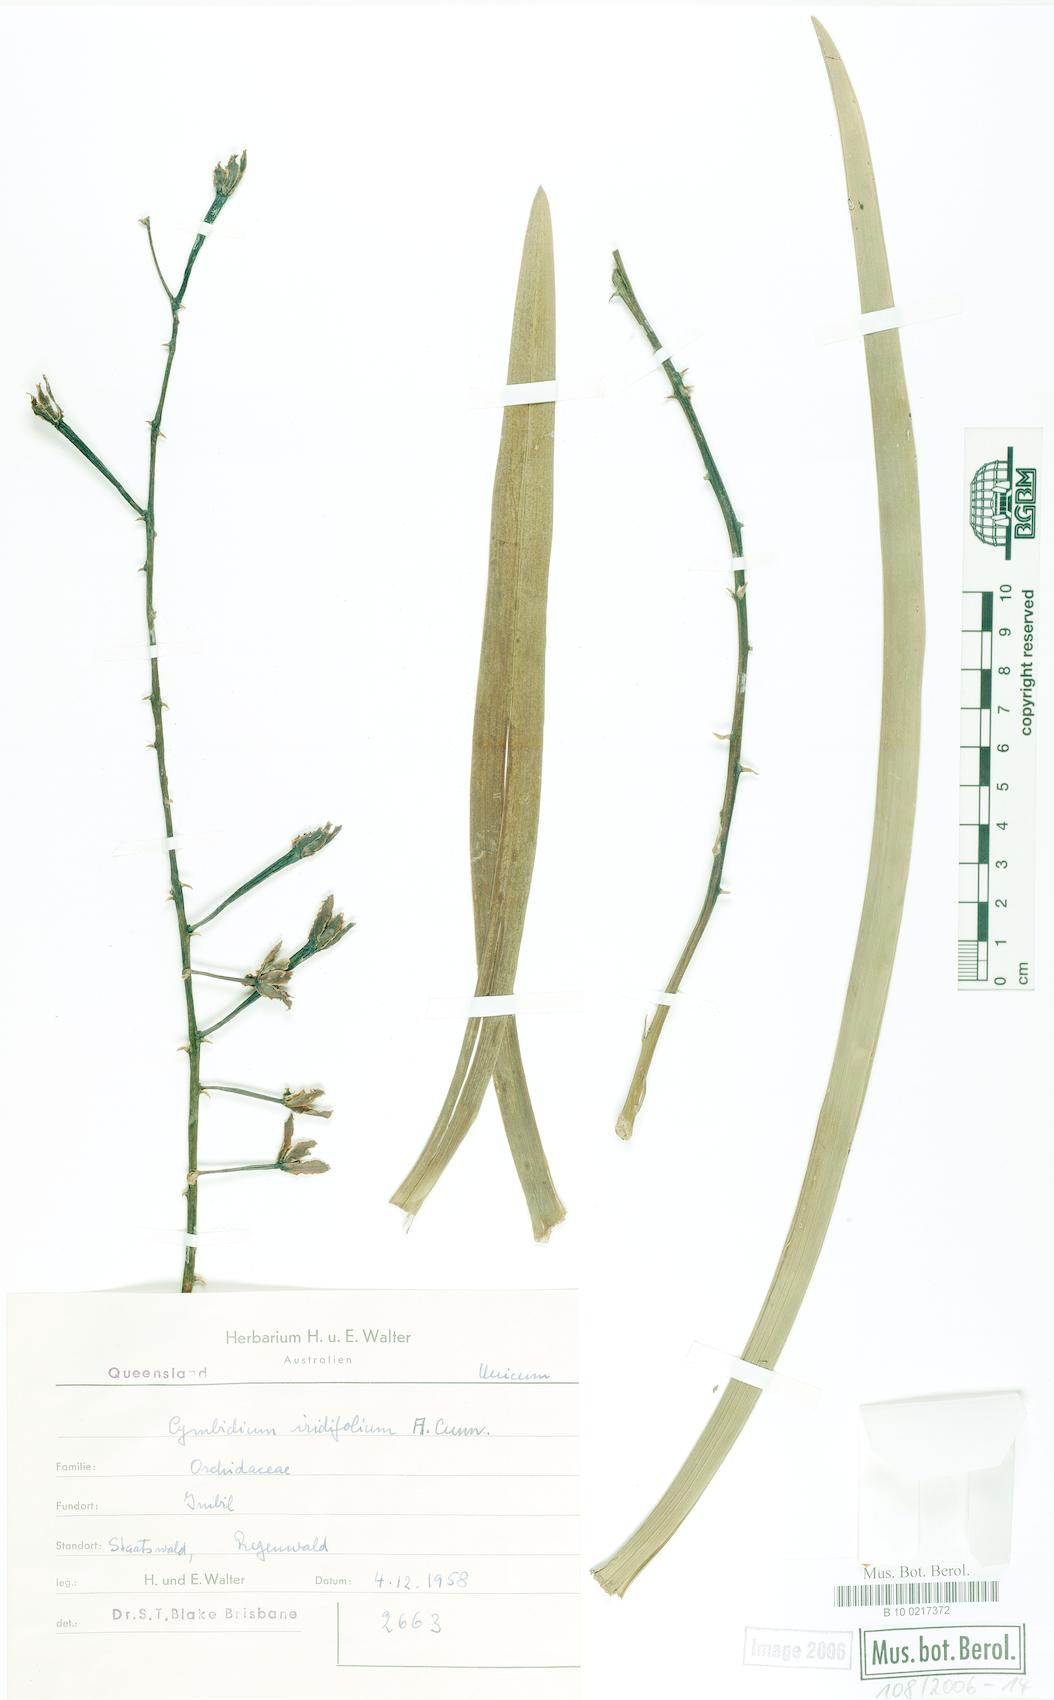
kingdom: Plantae
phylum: Tracheophyta
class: Liliopsida
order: Asparagales
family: Orchidaceae
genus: Cymbidium
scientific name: Cymbidium madidum
